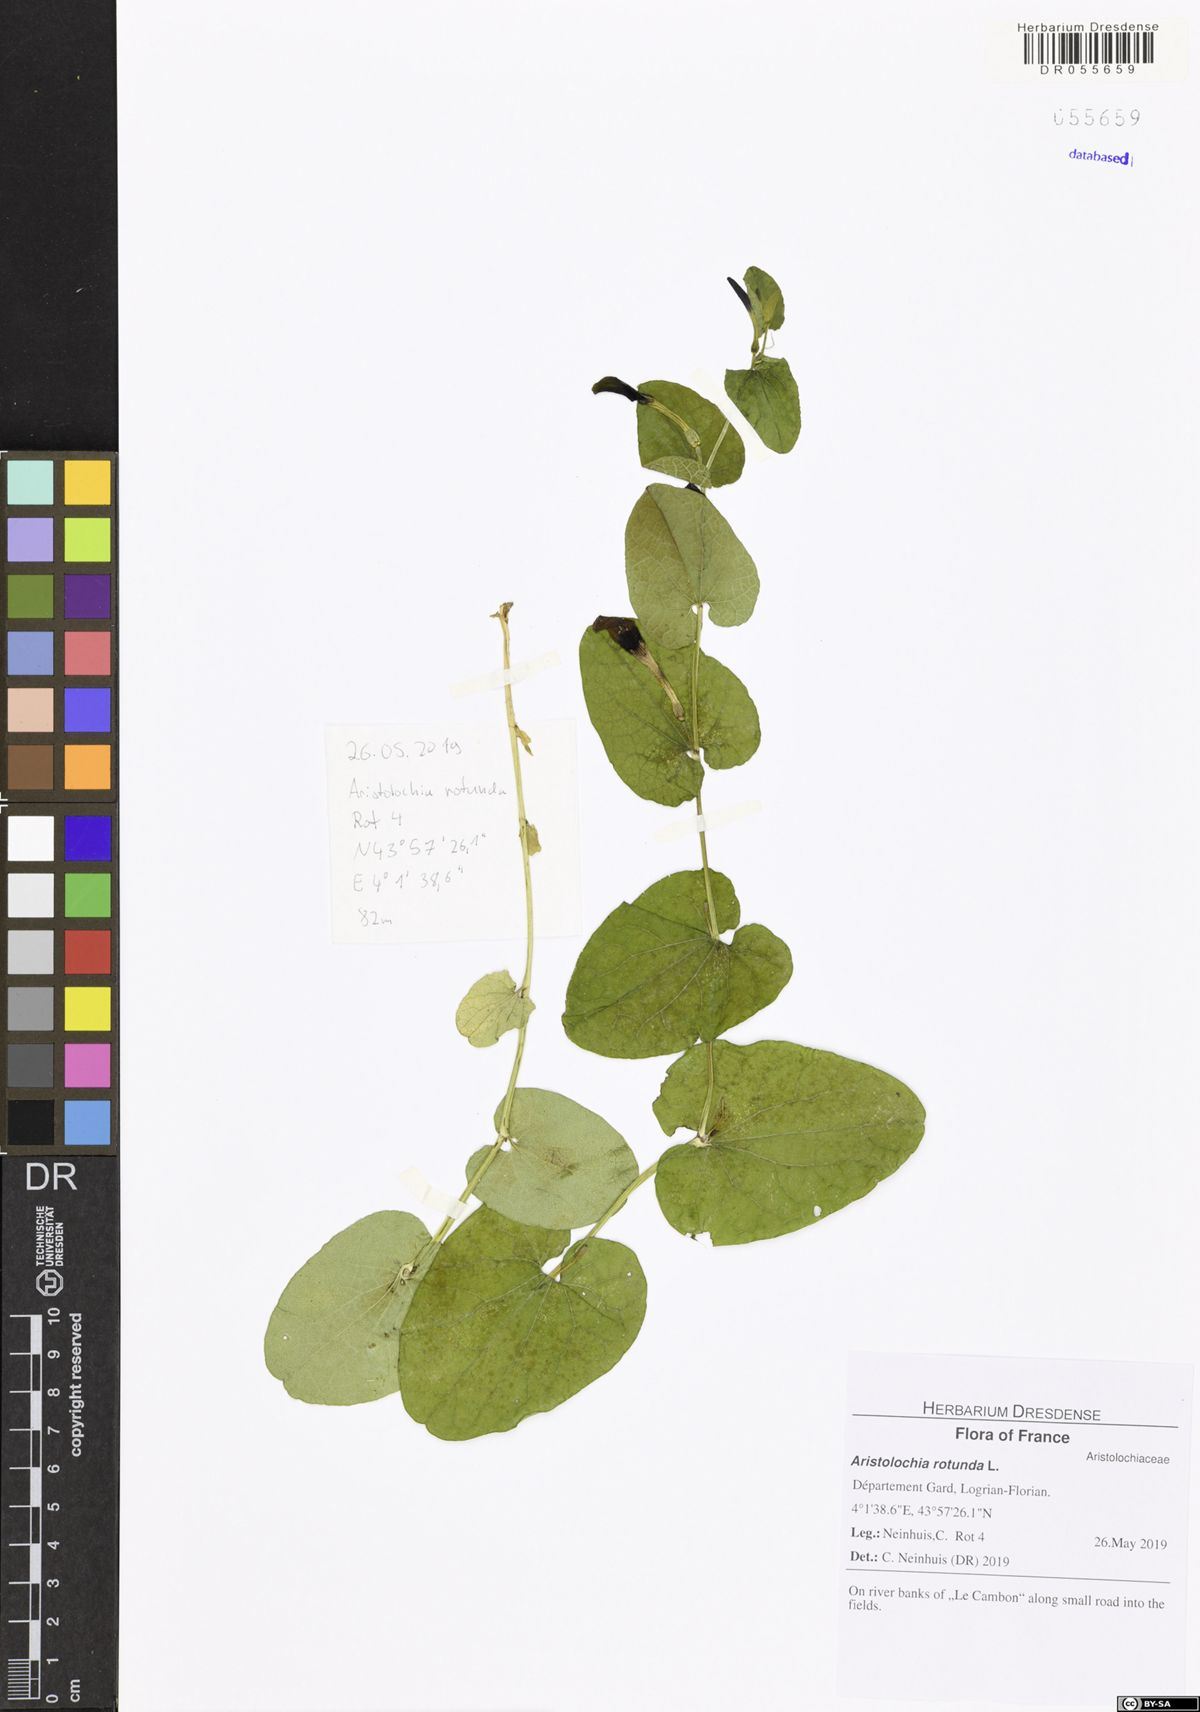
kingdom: Plantae
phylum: Tracheophyta
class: Magnoliopsida
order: Piperales
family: Aristolochiaceae
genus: Aristolochia
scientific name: Aristolochia rotunda
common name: Smearwort
